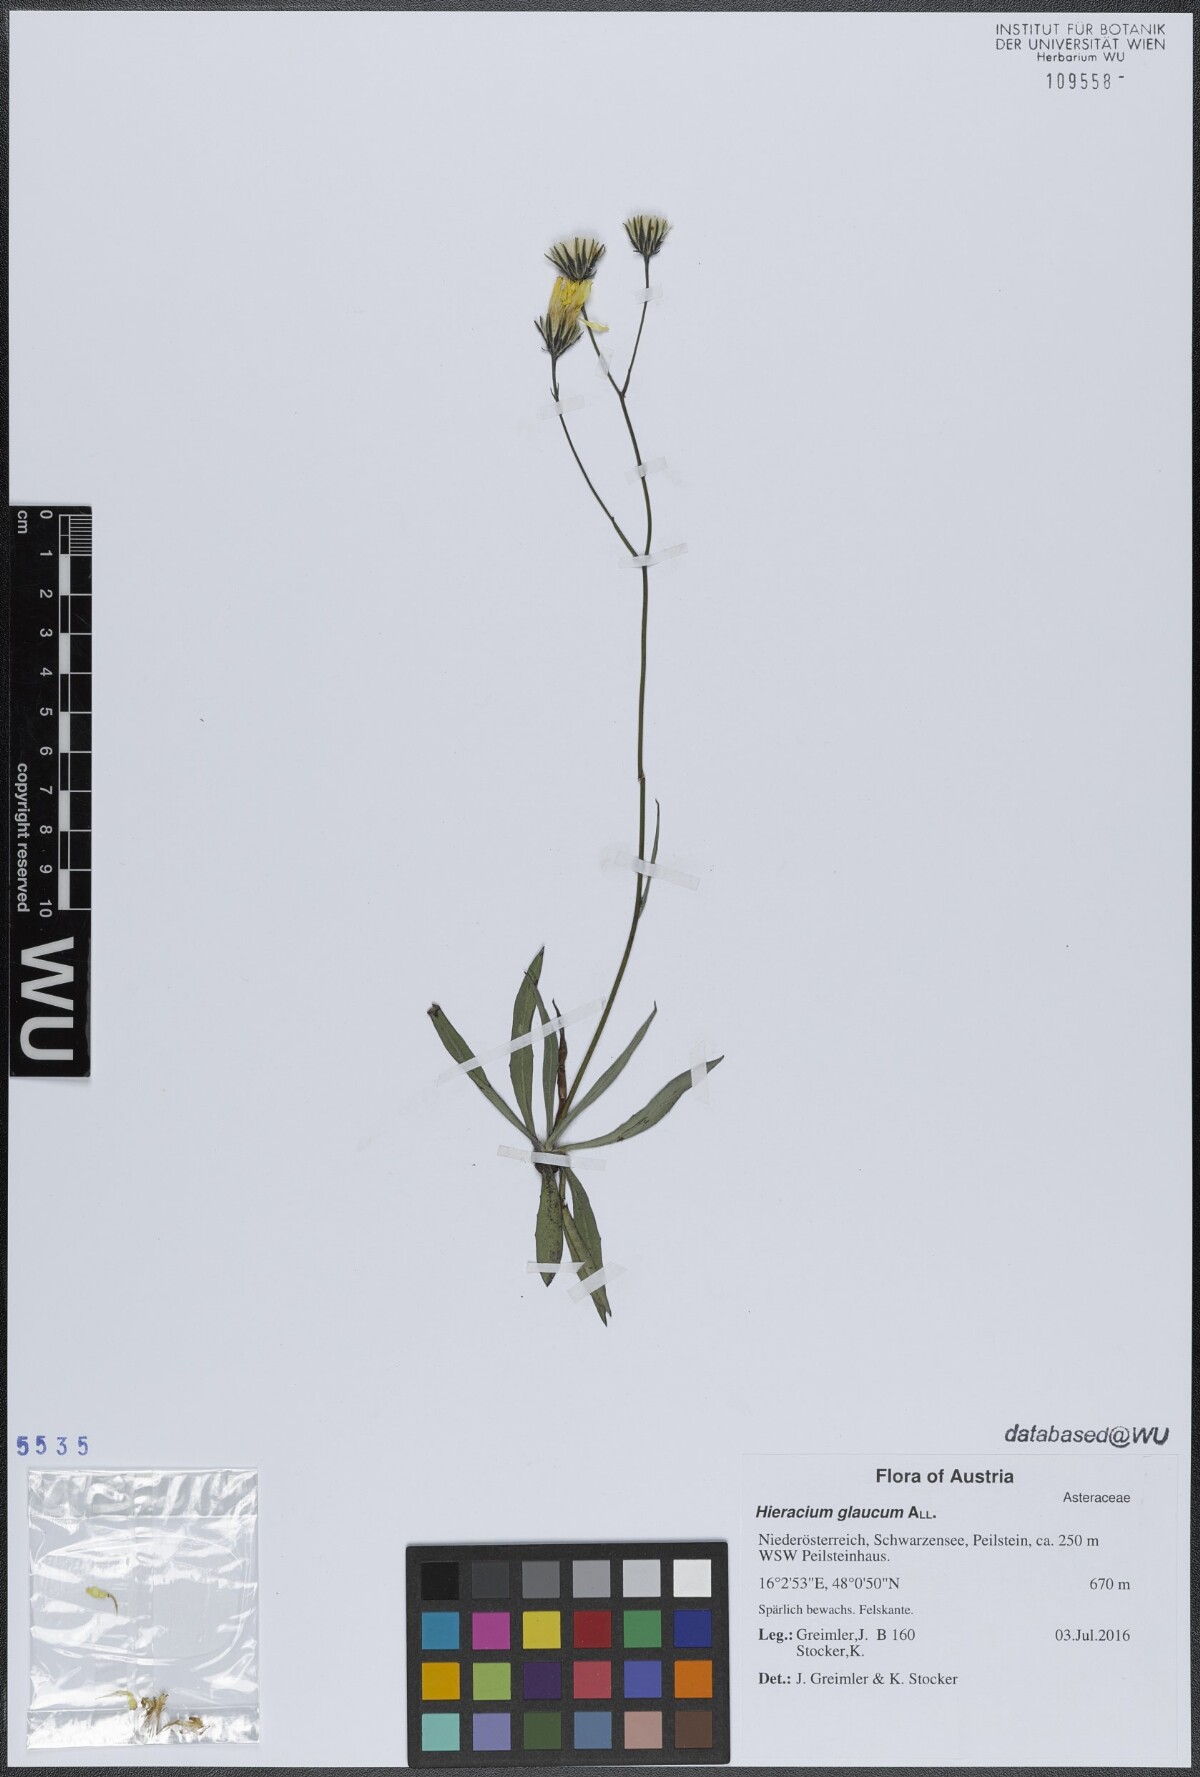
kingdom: Plantae
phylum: Tracheophyta
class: Magnoliopsida
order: Asterales
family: Asteraceae
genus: Hieracium
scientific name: Hieracium glaucum
